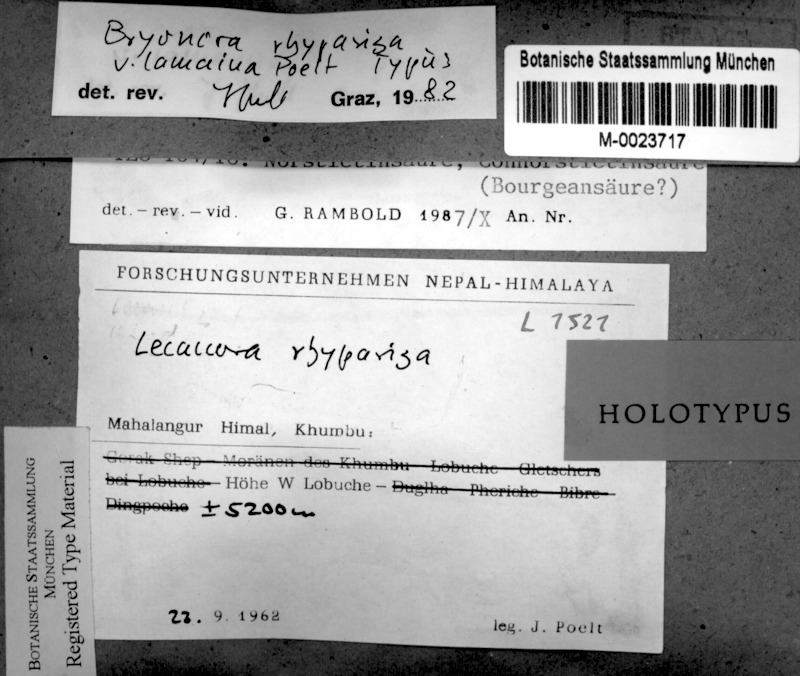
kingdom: Fungi
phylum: Ascomycota
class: Lecanoromycetes
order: Lecanorales
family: Lecanoraceae
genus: Bryodina
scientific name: Bryodina rhypariza
